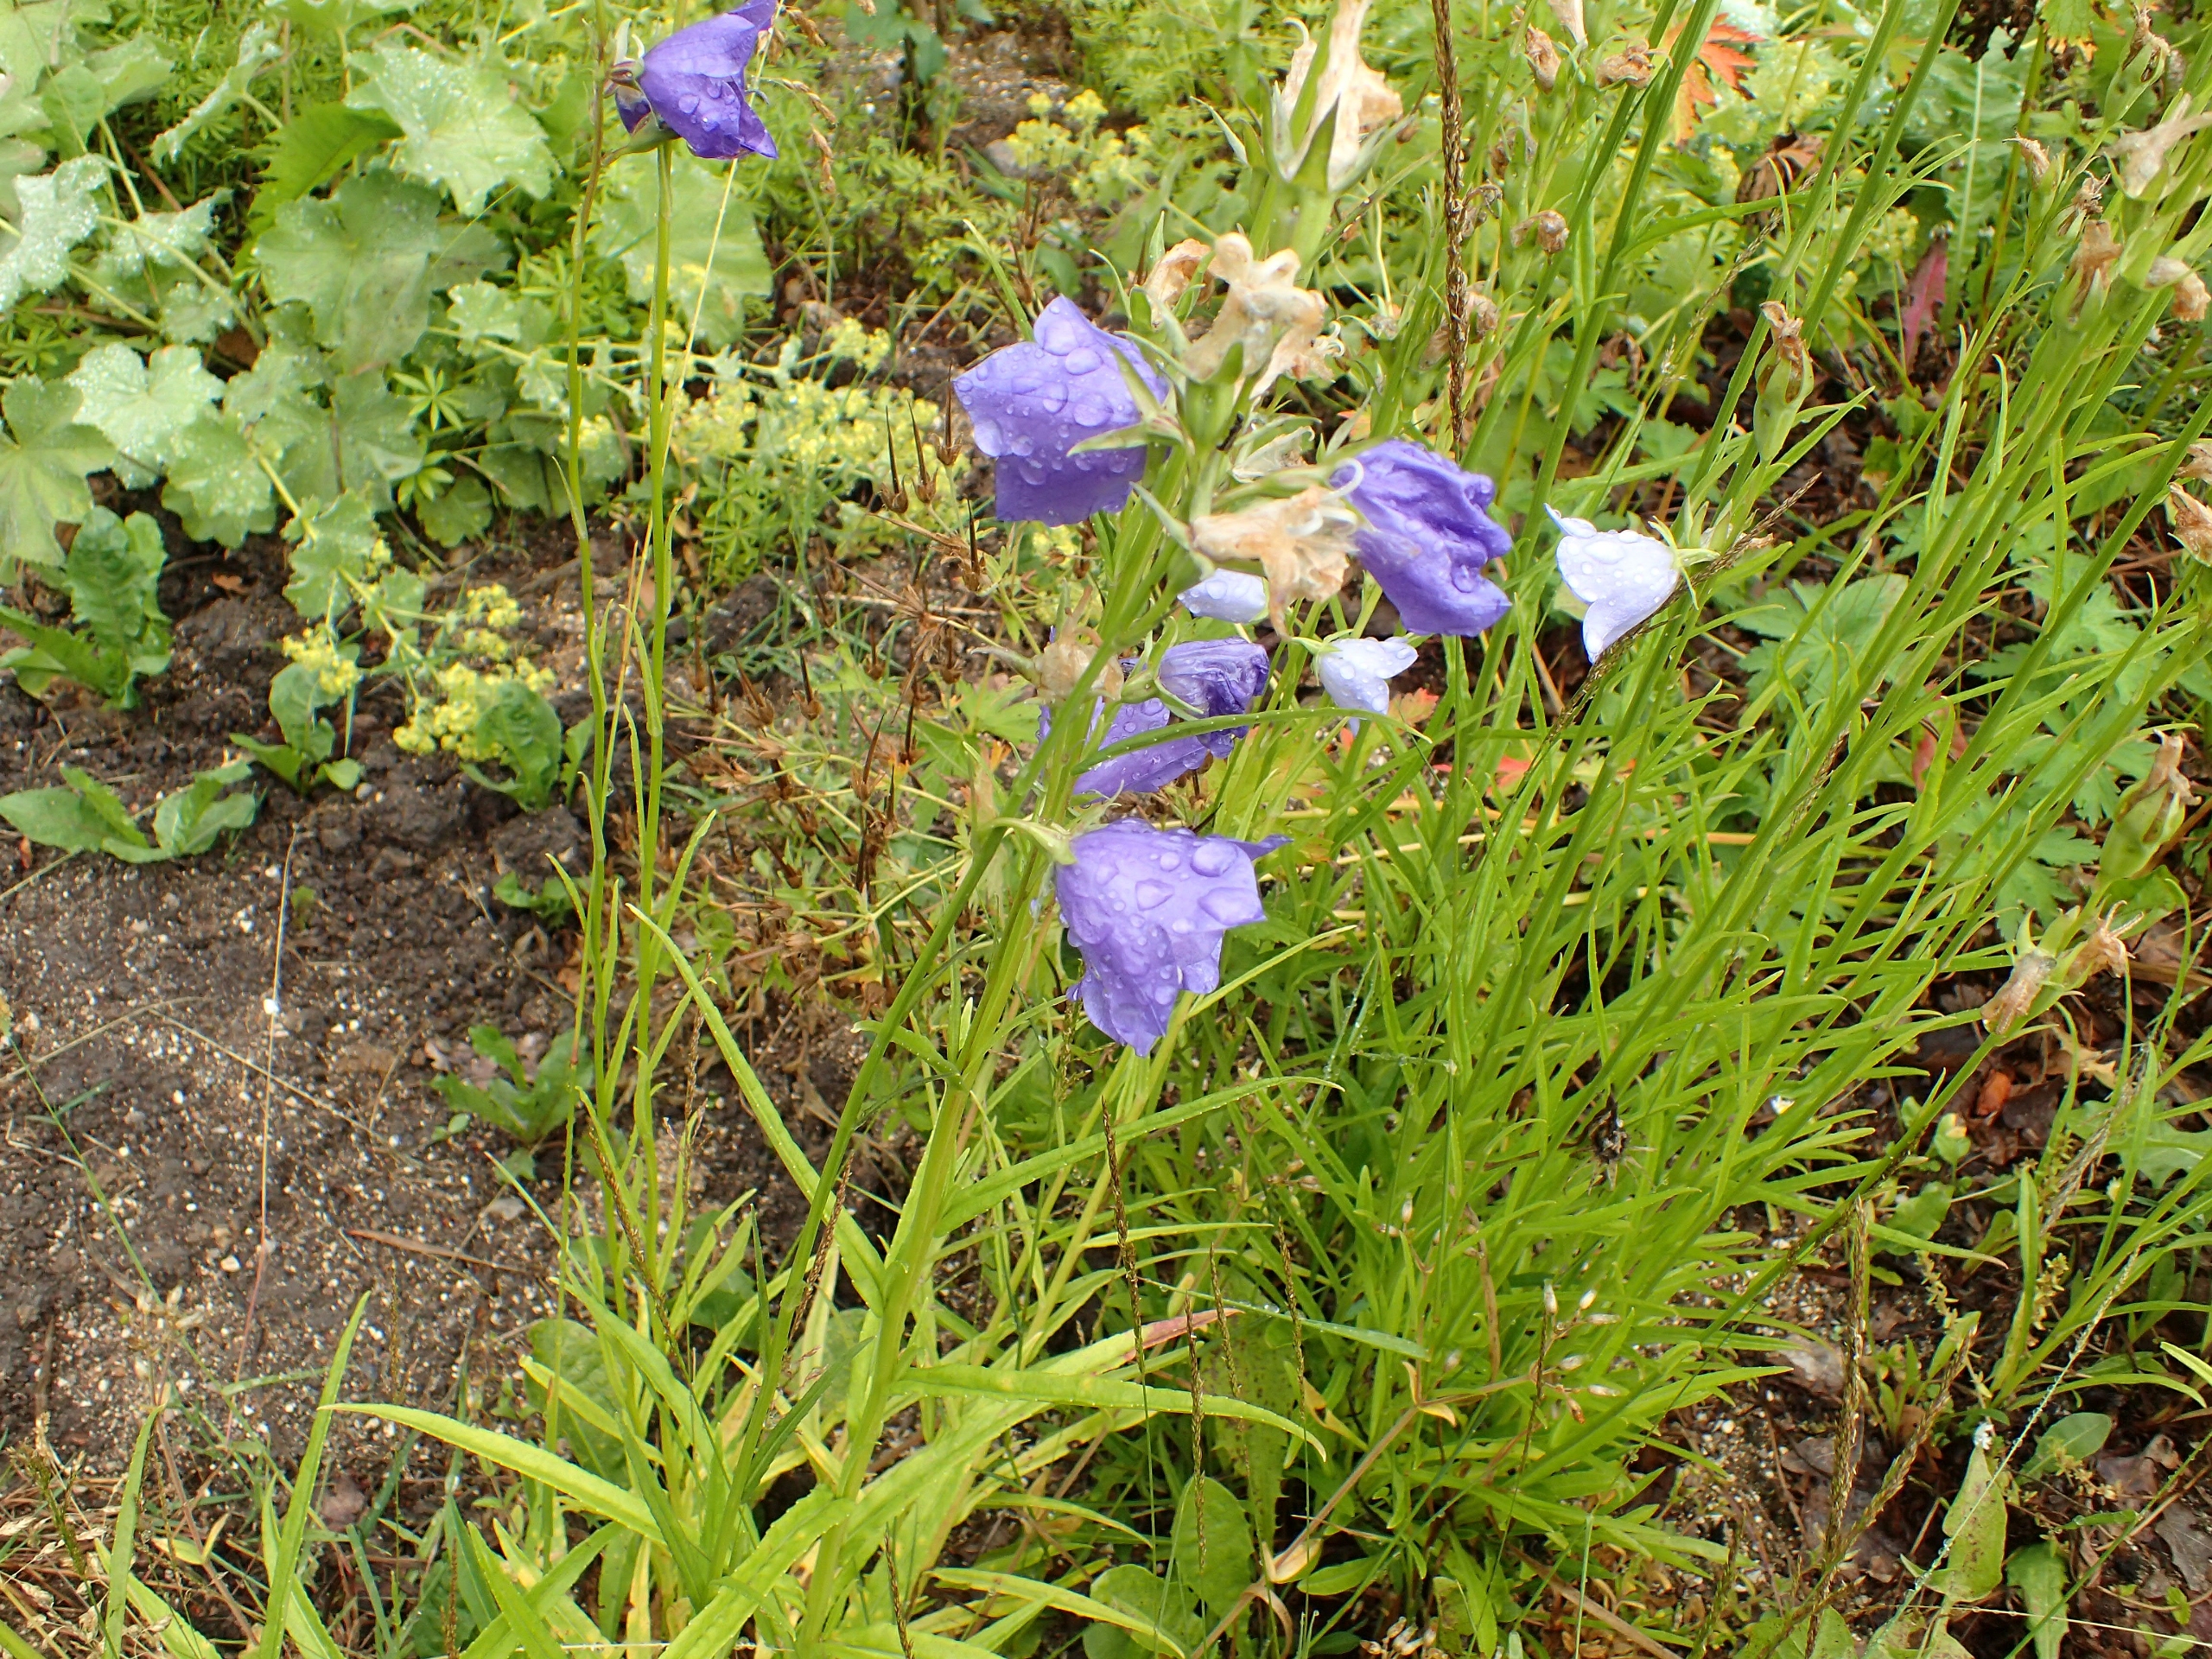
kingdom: Plantae
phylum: Tracheophyta
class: Magnoliopsida
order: Asterales
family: Campanulaceae
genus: Campanula
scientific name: Campanula persicifolia
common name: Smalbladet klokke
